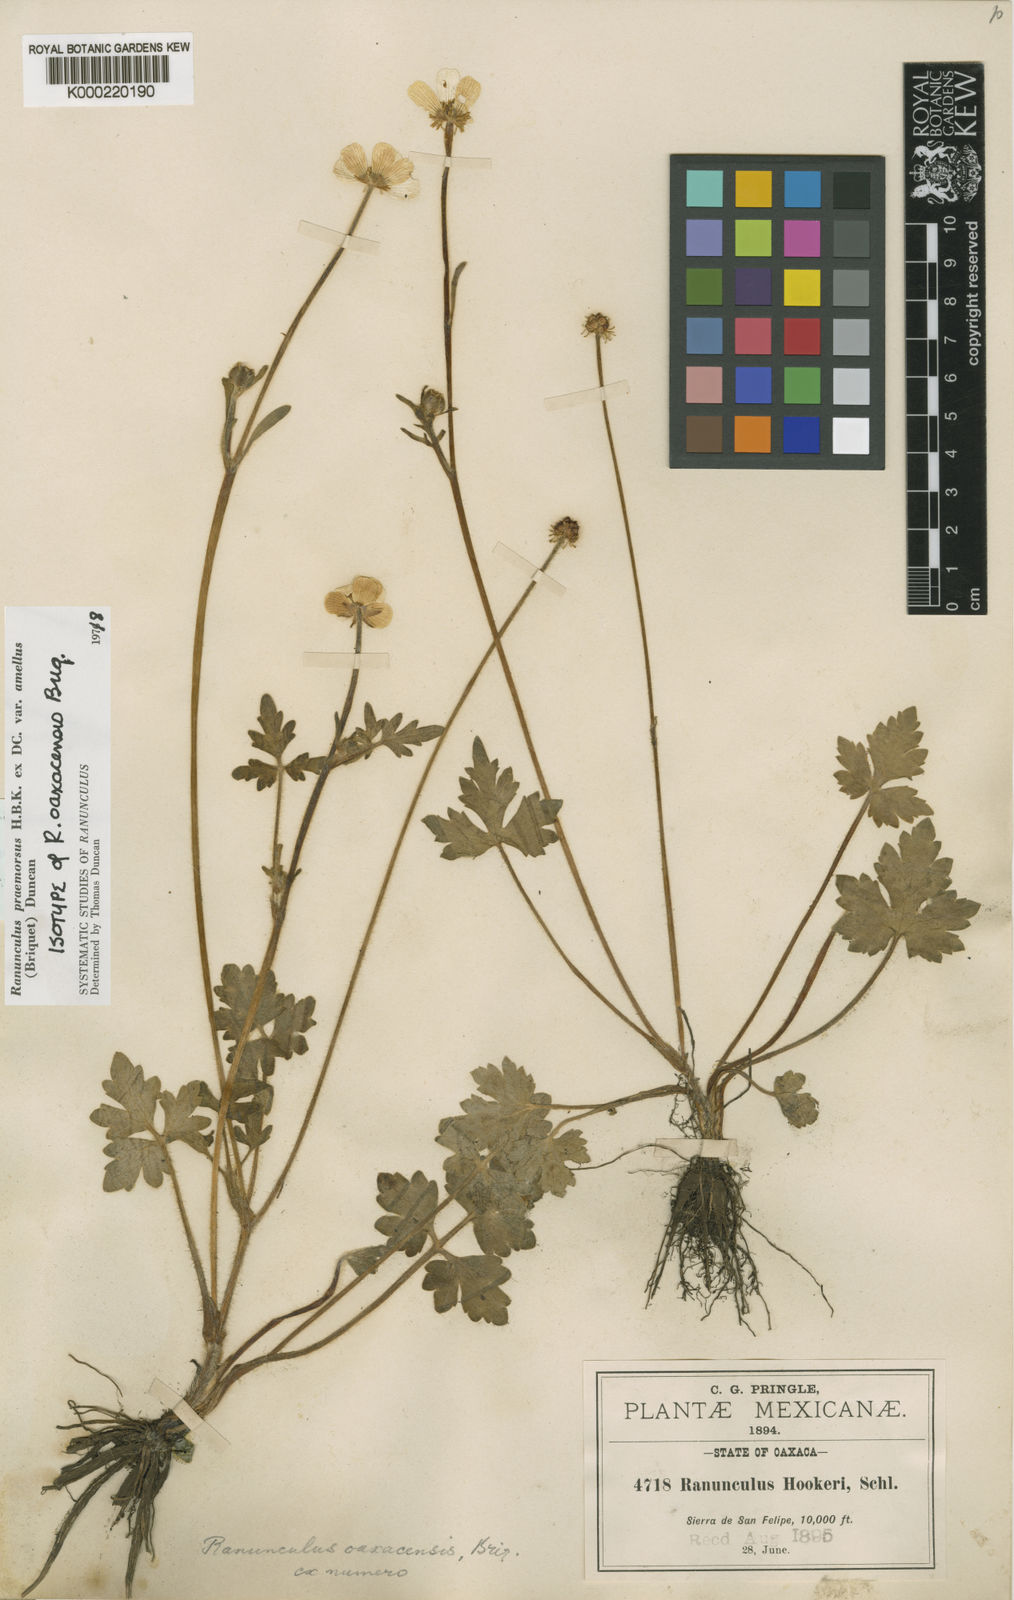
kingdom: Plantae
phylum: Tracheophyta
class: Magnoliopsida
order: Ranunculales
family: Ranunculaceae
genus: Ranunculus
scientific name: Ranunculus oaxacensis
